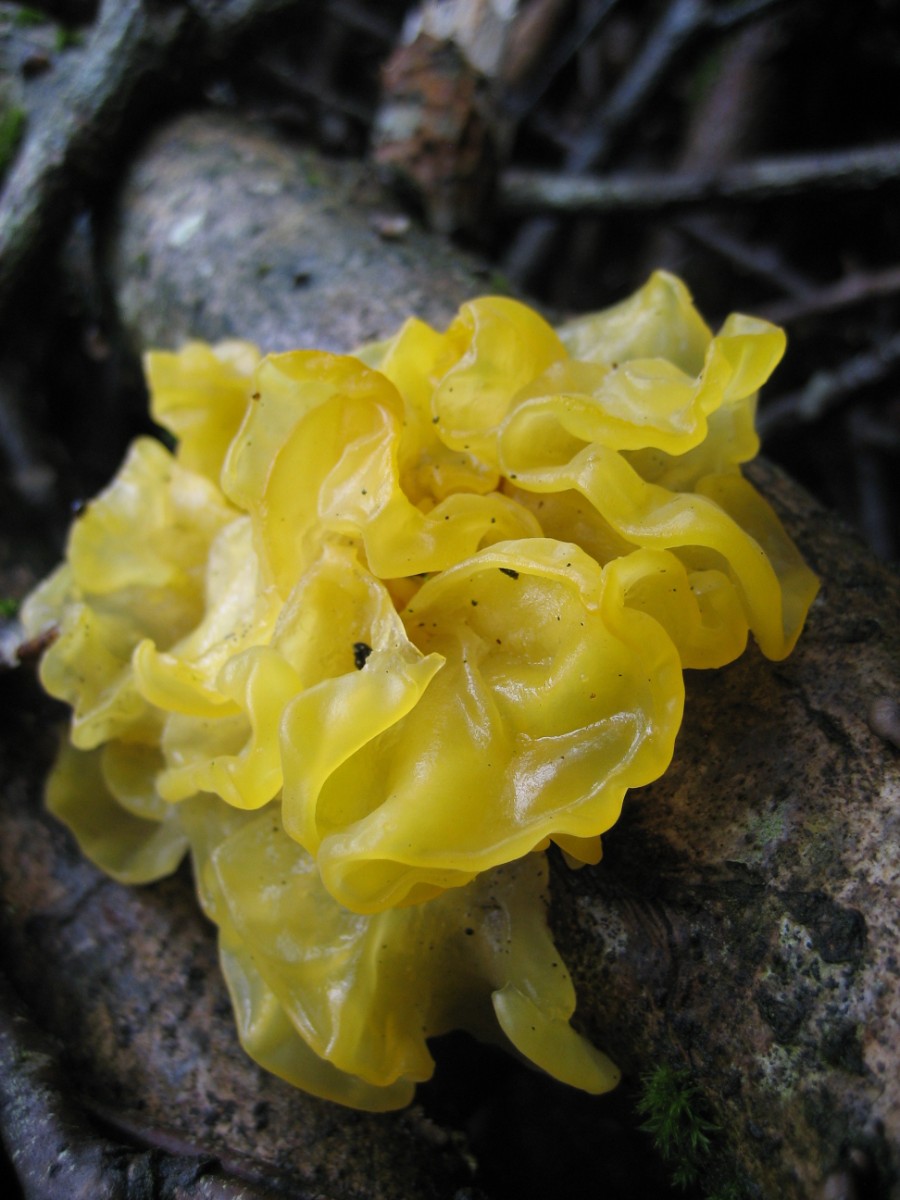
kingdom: Fungi
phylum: Basidiomycota
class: Tremellomycetes
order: Tremellales
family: Tremellaceae
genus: Tremella
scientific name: Tremella mesenterica
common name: gul bævresvamp
